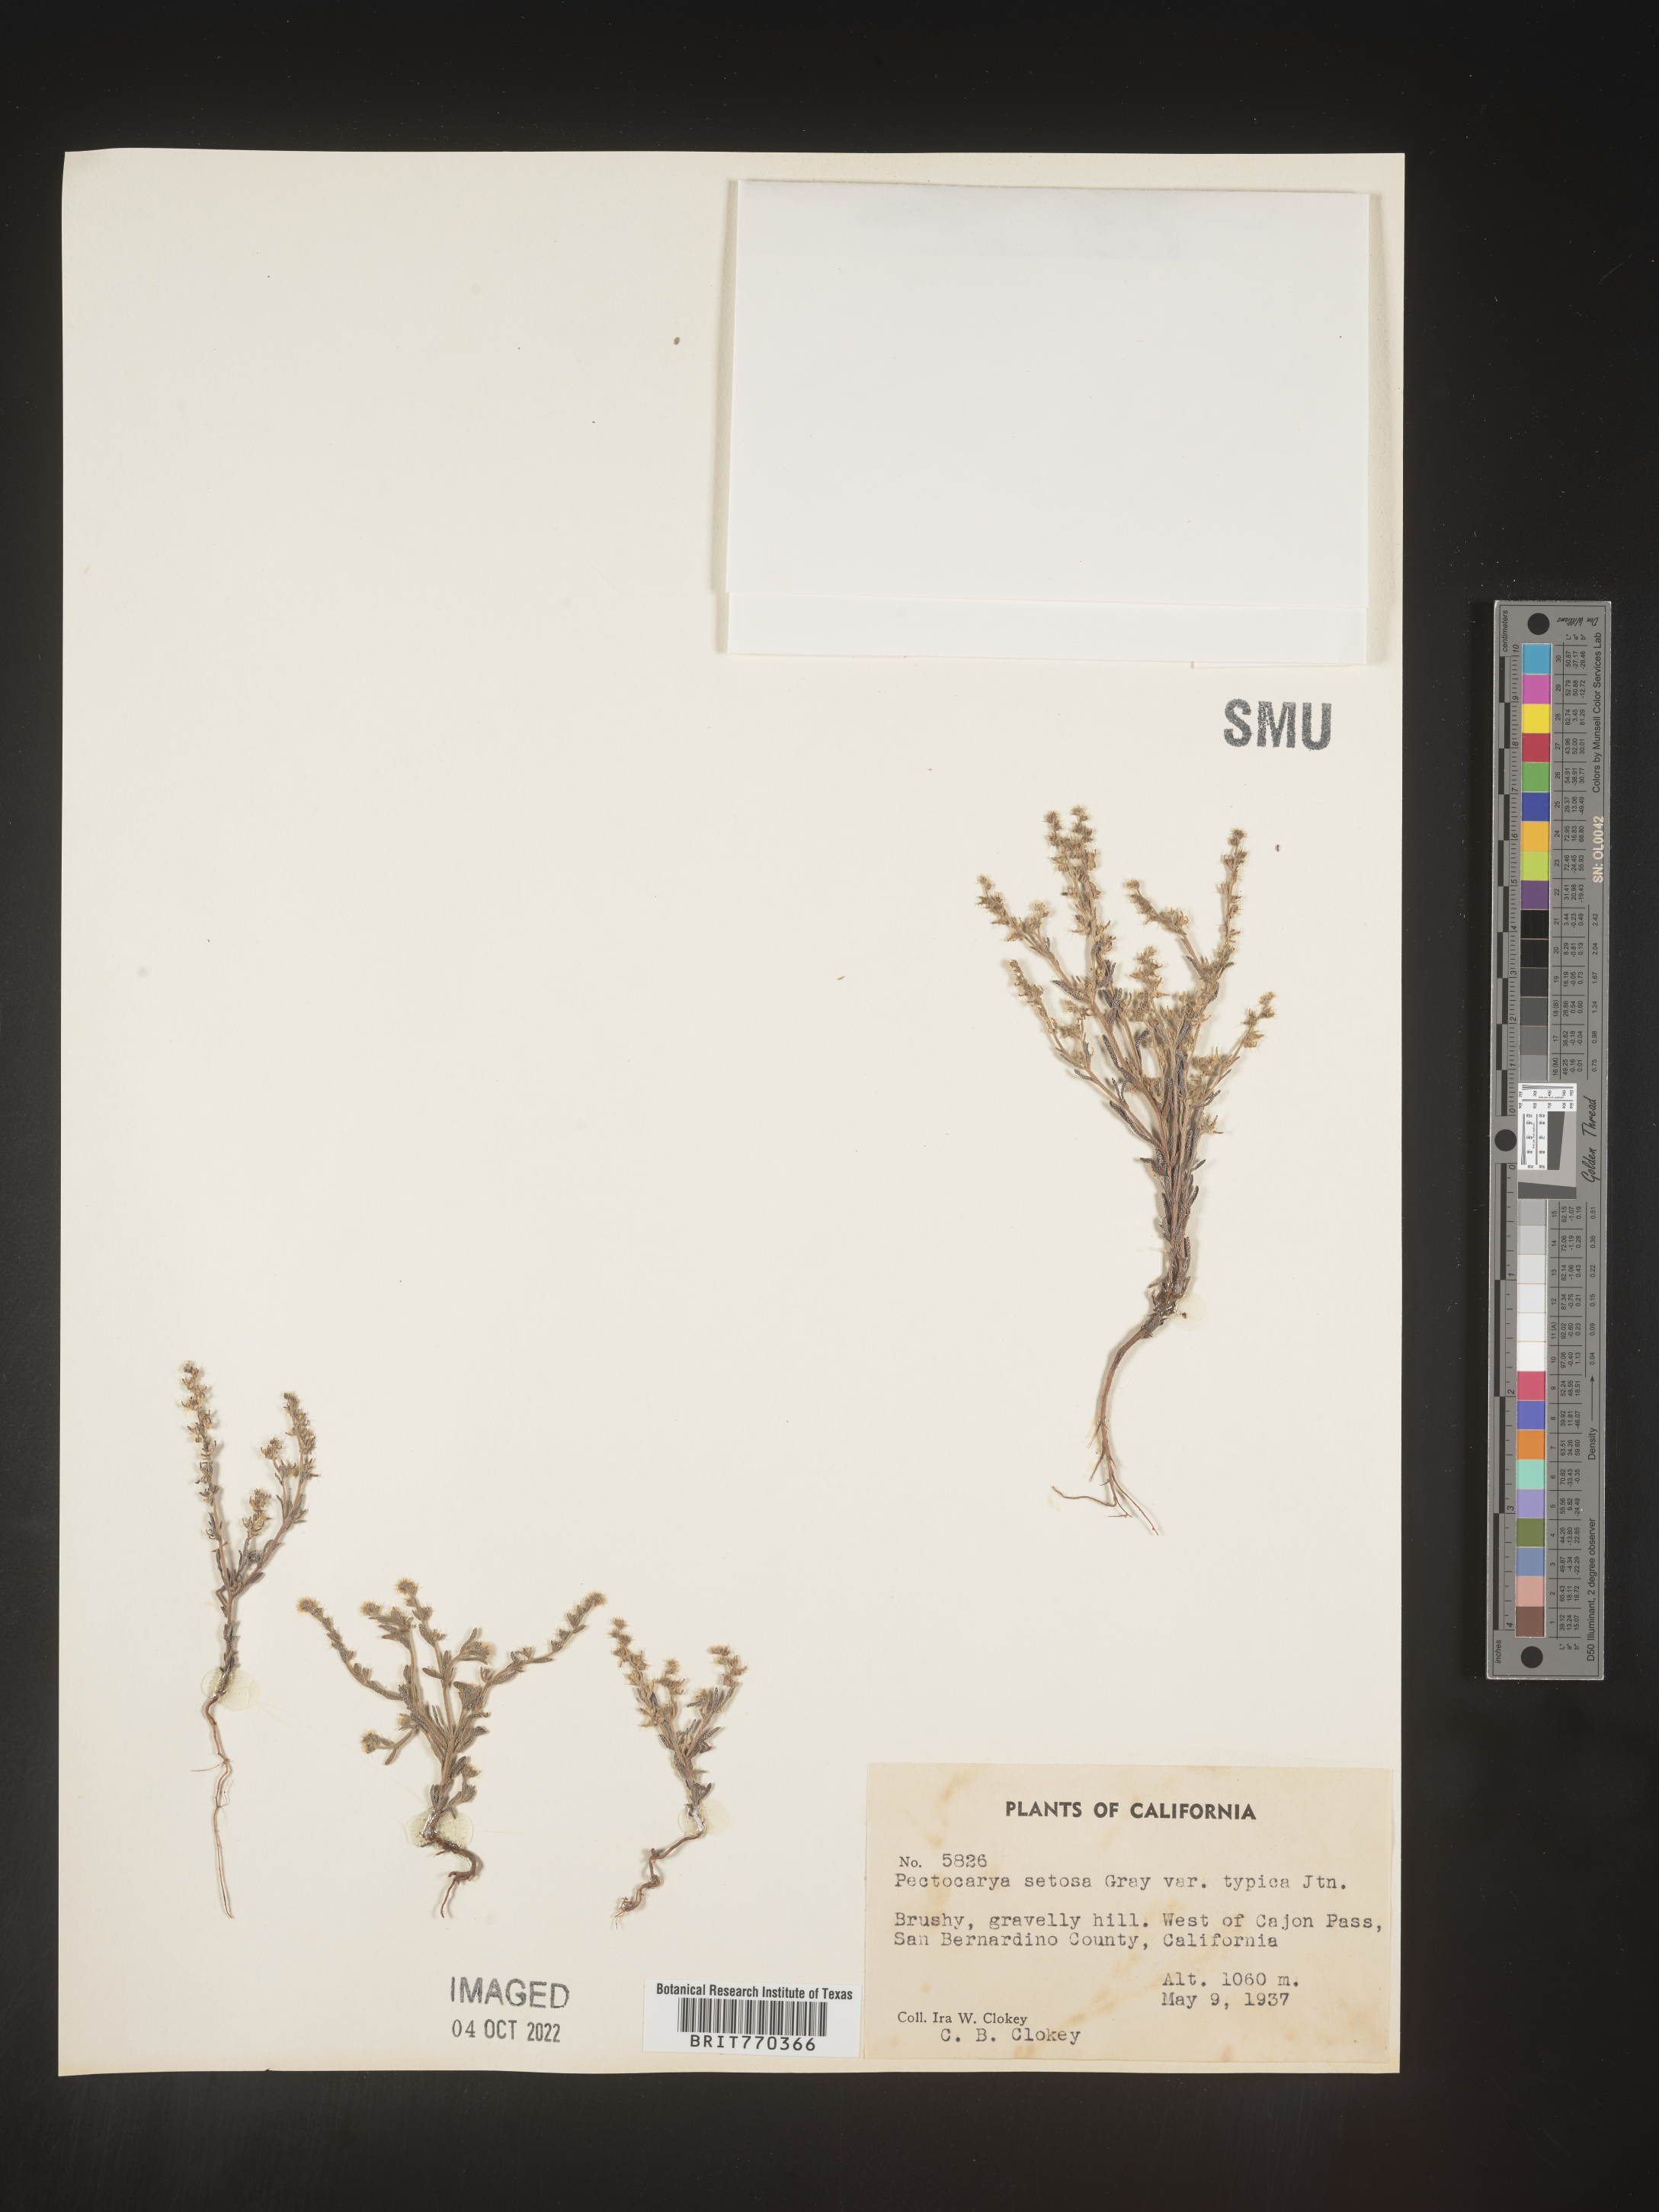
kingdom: Plantae
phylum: Tracheophyta
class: Magnoliopsida
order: Boraginales
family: Boraginaceae
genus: Pectocarya
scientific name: Pectocarya
